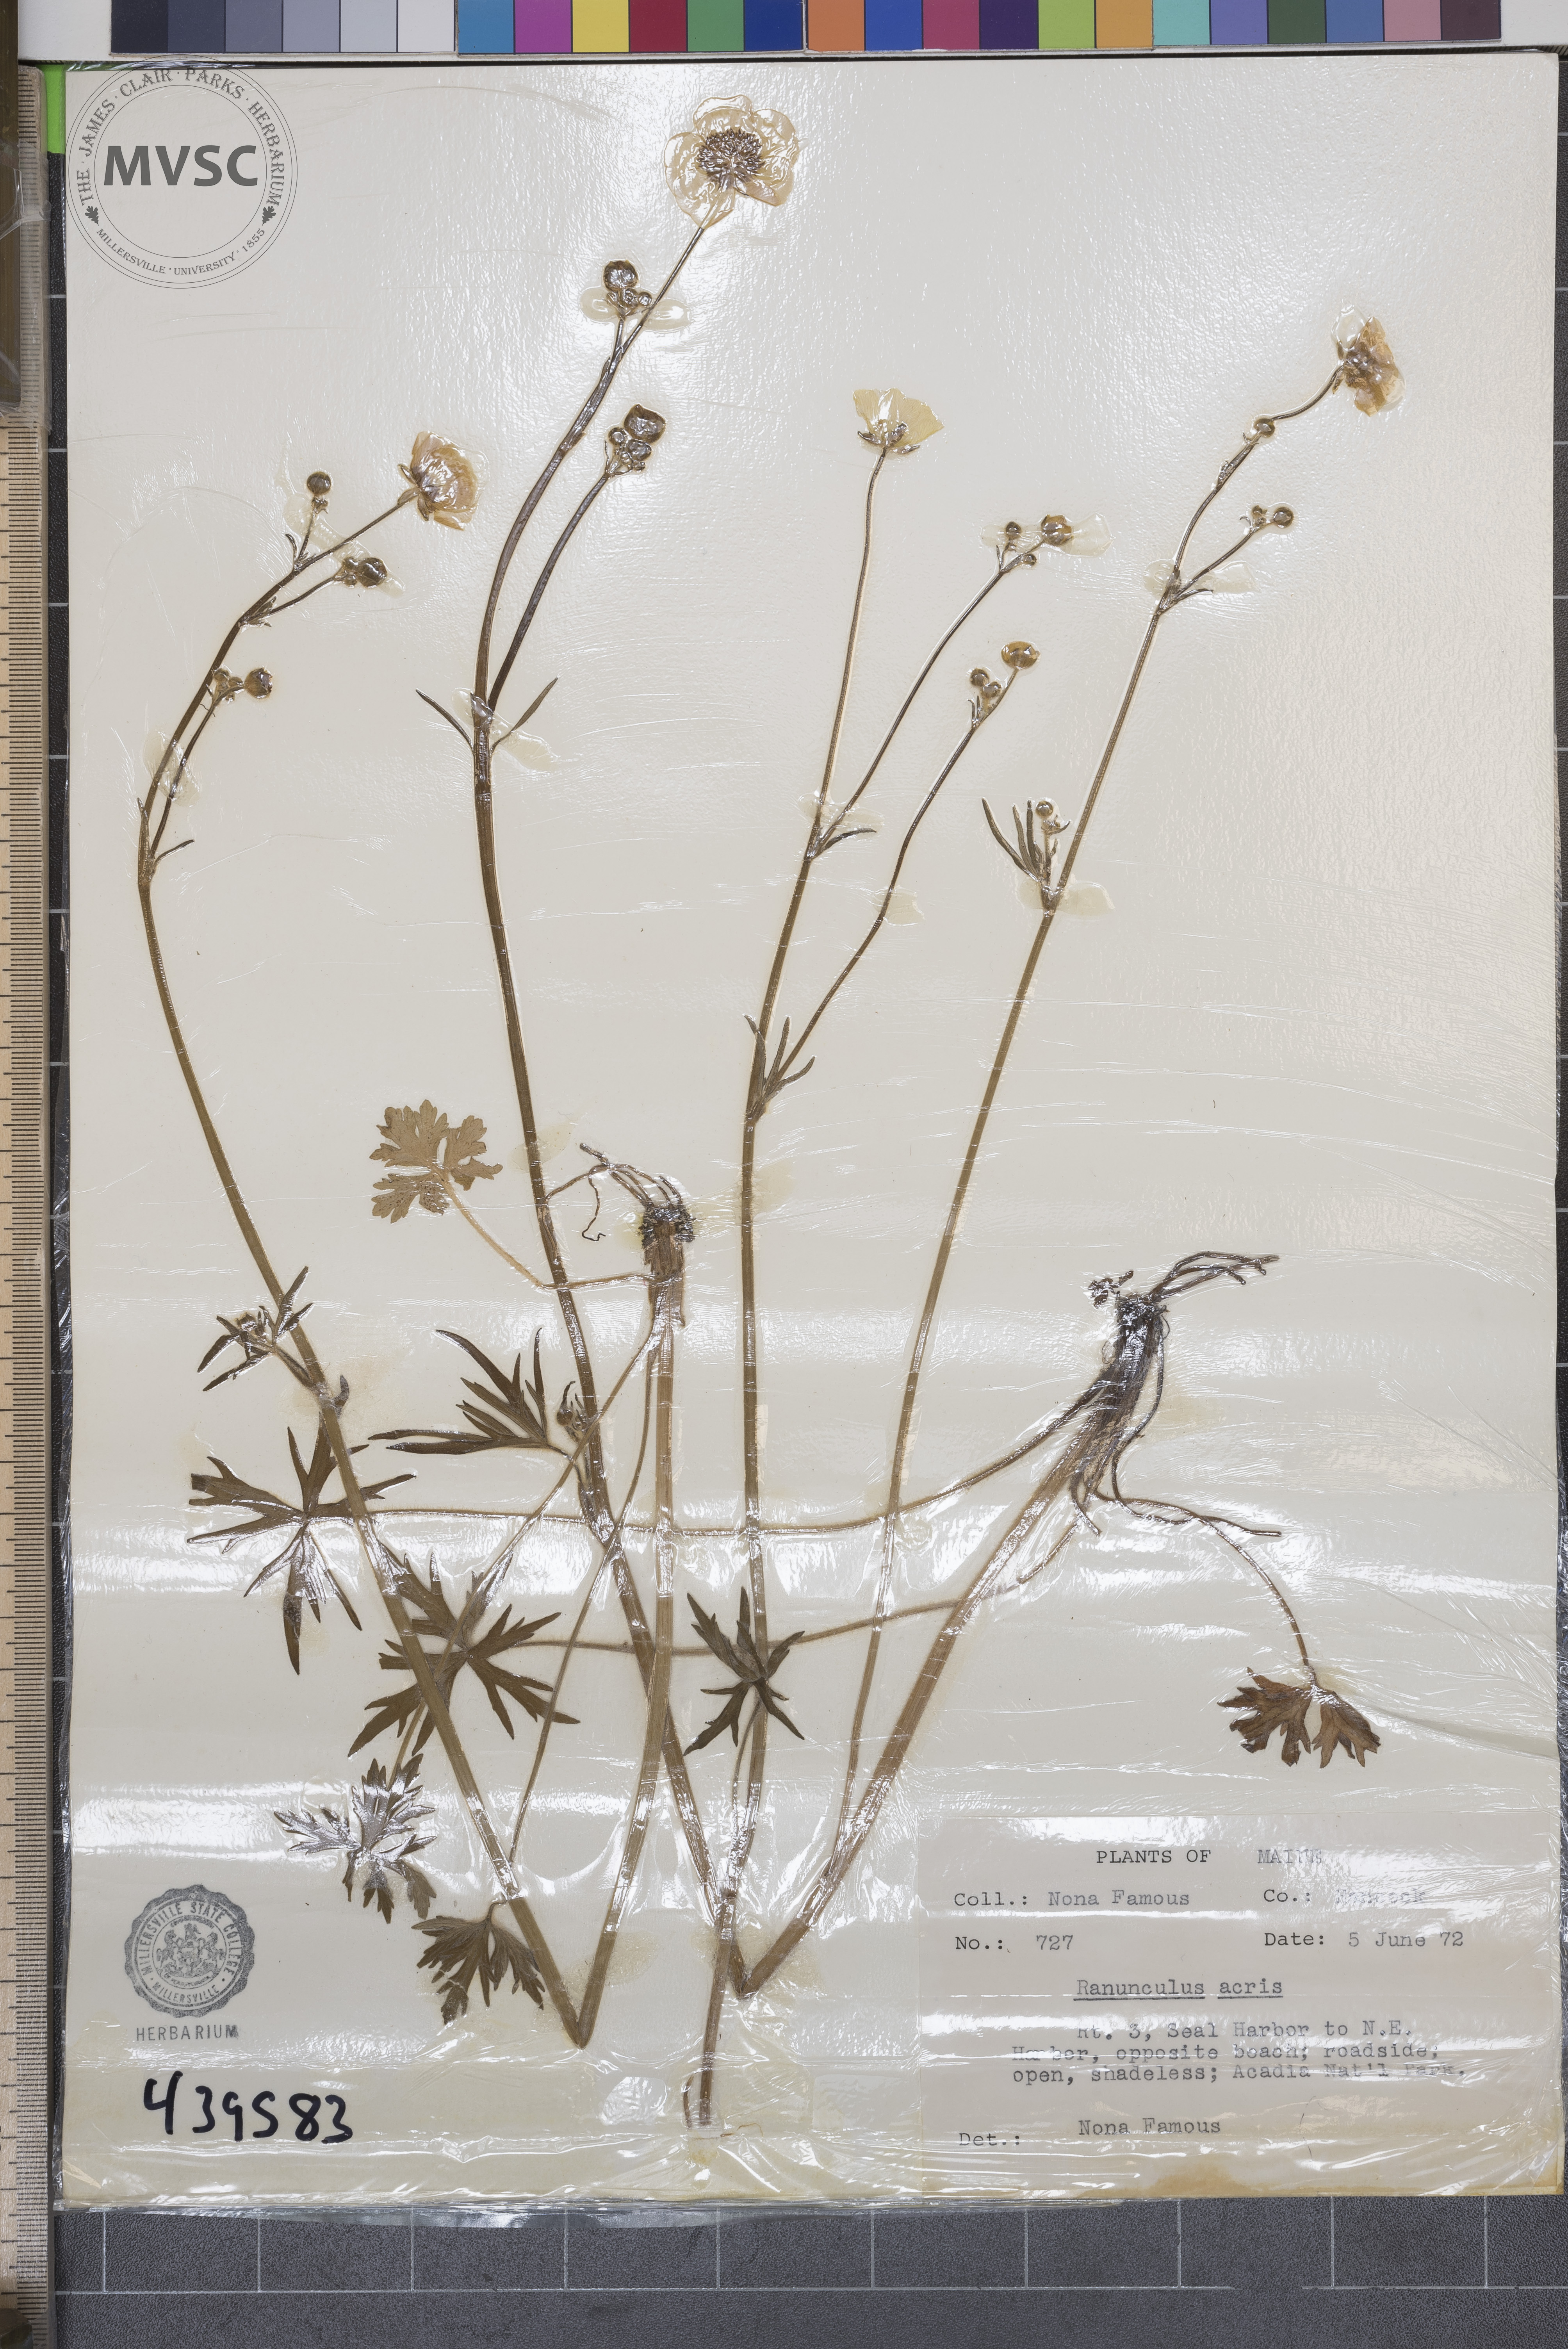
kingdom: Plantae
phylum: Tracheophyta
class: Magnoliopsida
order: Ranunculales
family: Ranunculaceae
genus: Ranunculus
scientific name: Ranunculus acris
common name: Meadow buttercup
